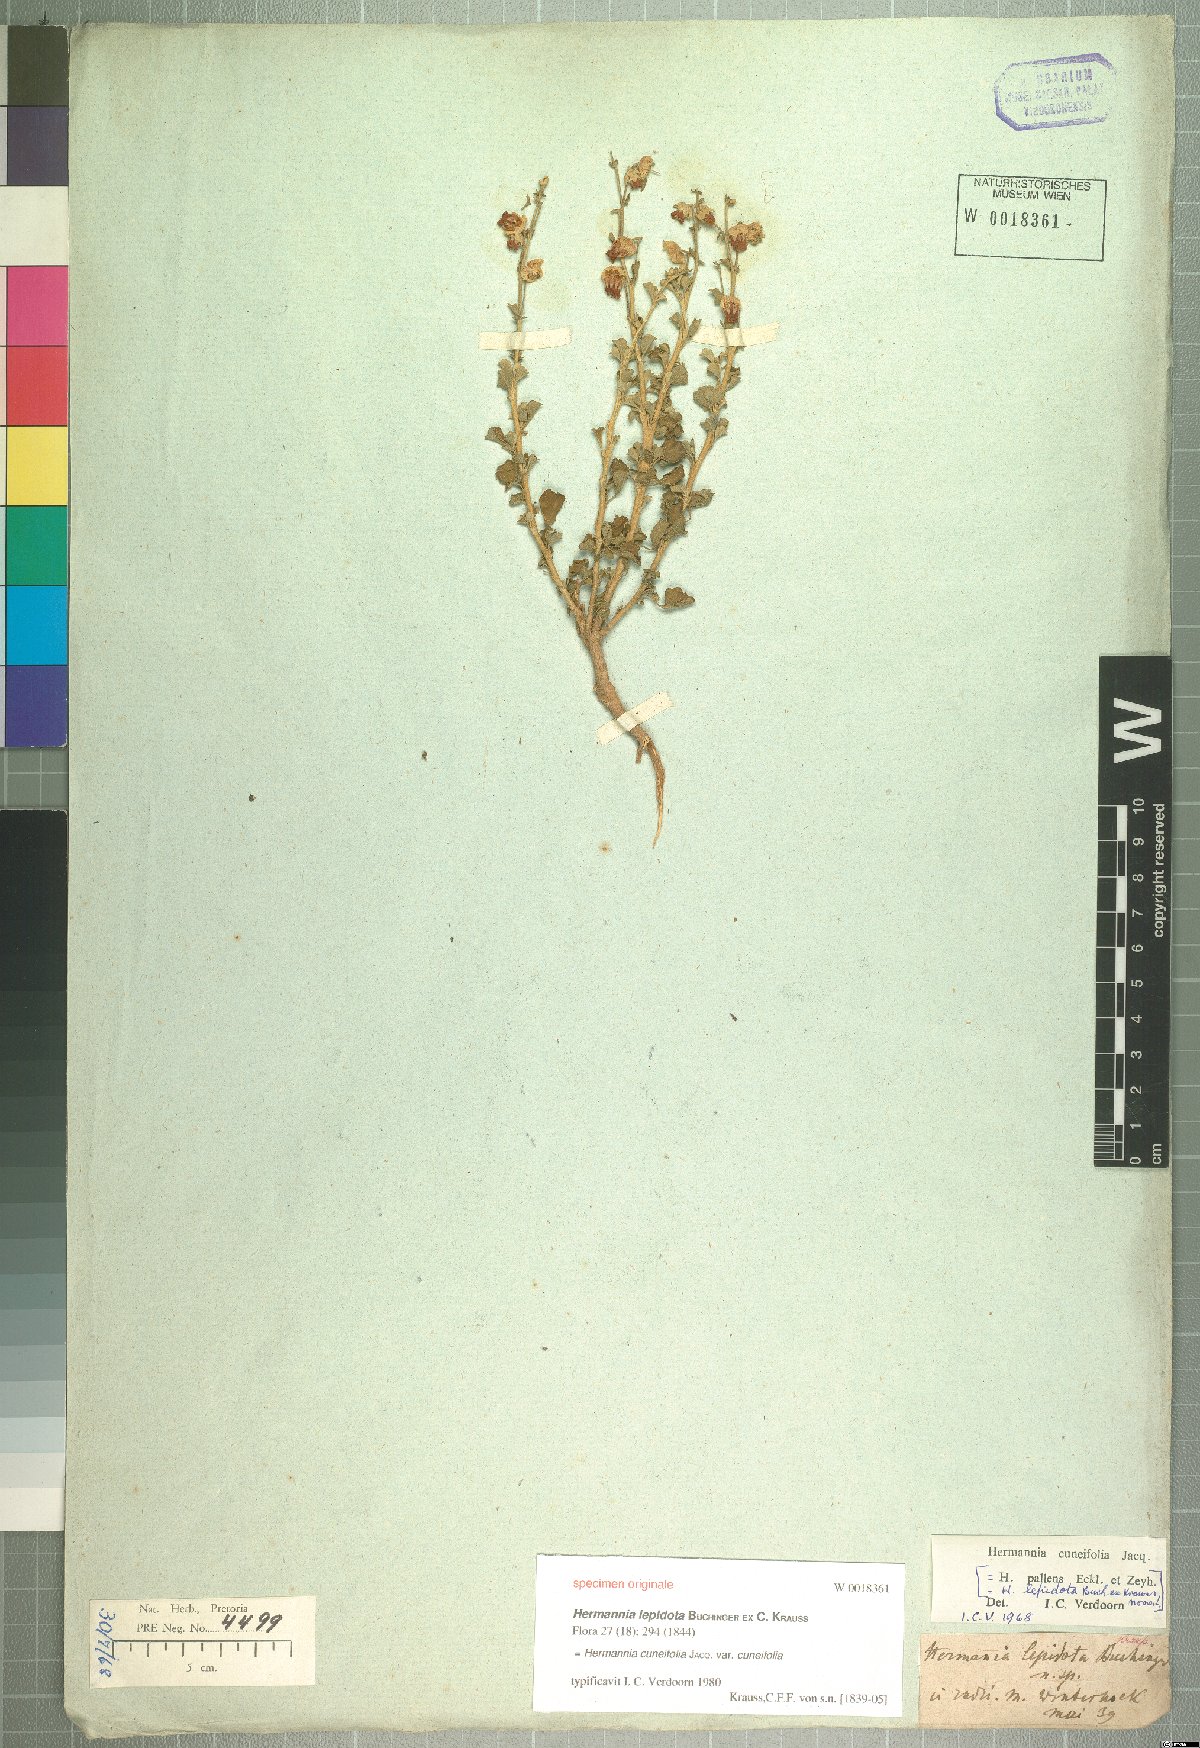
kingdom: Plantae
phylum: Tracheophyta
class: Magnoliopsida
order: Malvales
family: Malvaceae
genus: Hermannia
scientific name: Hermannia cuneifolia
